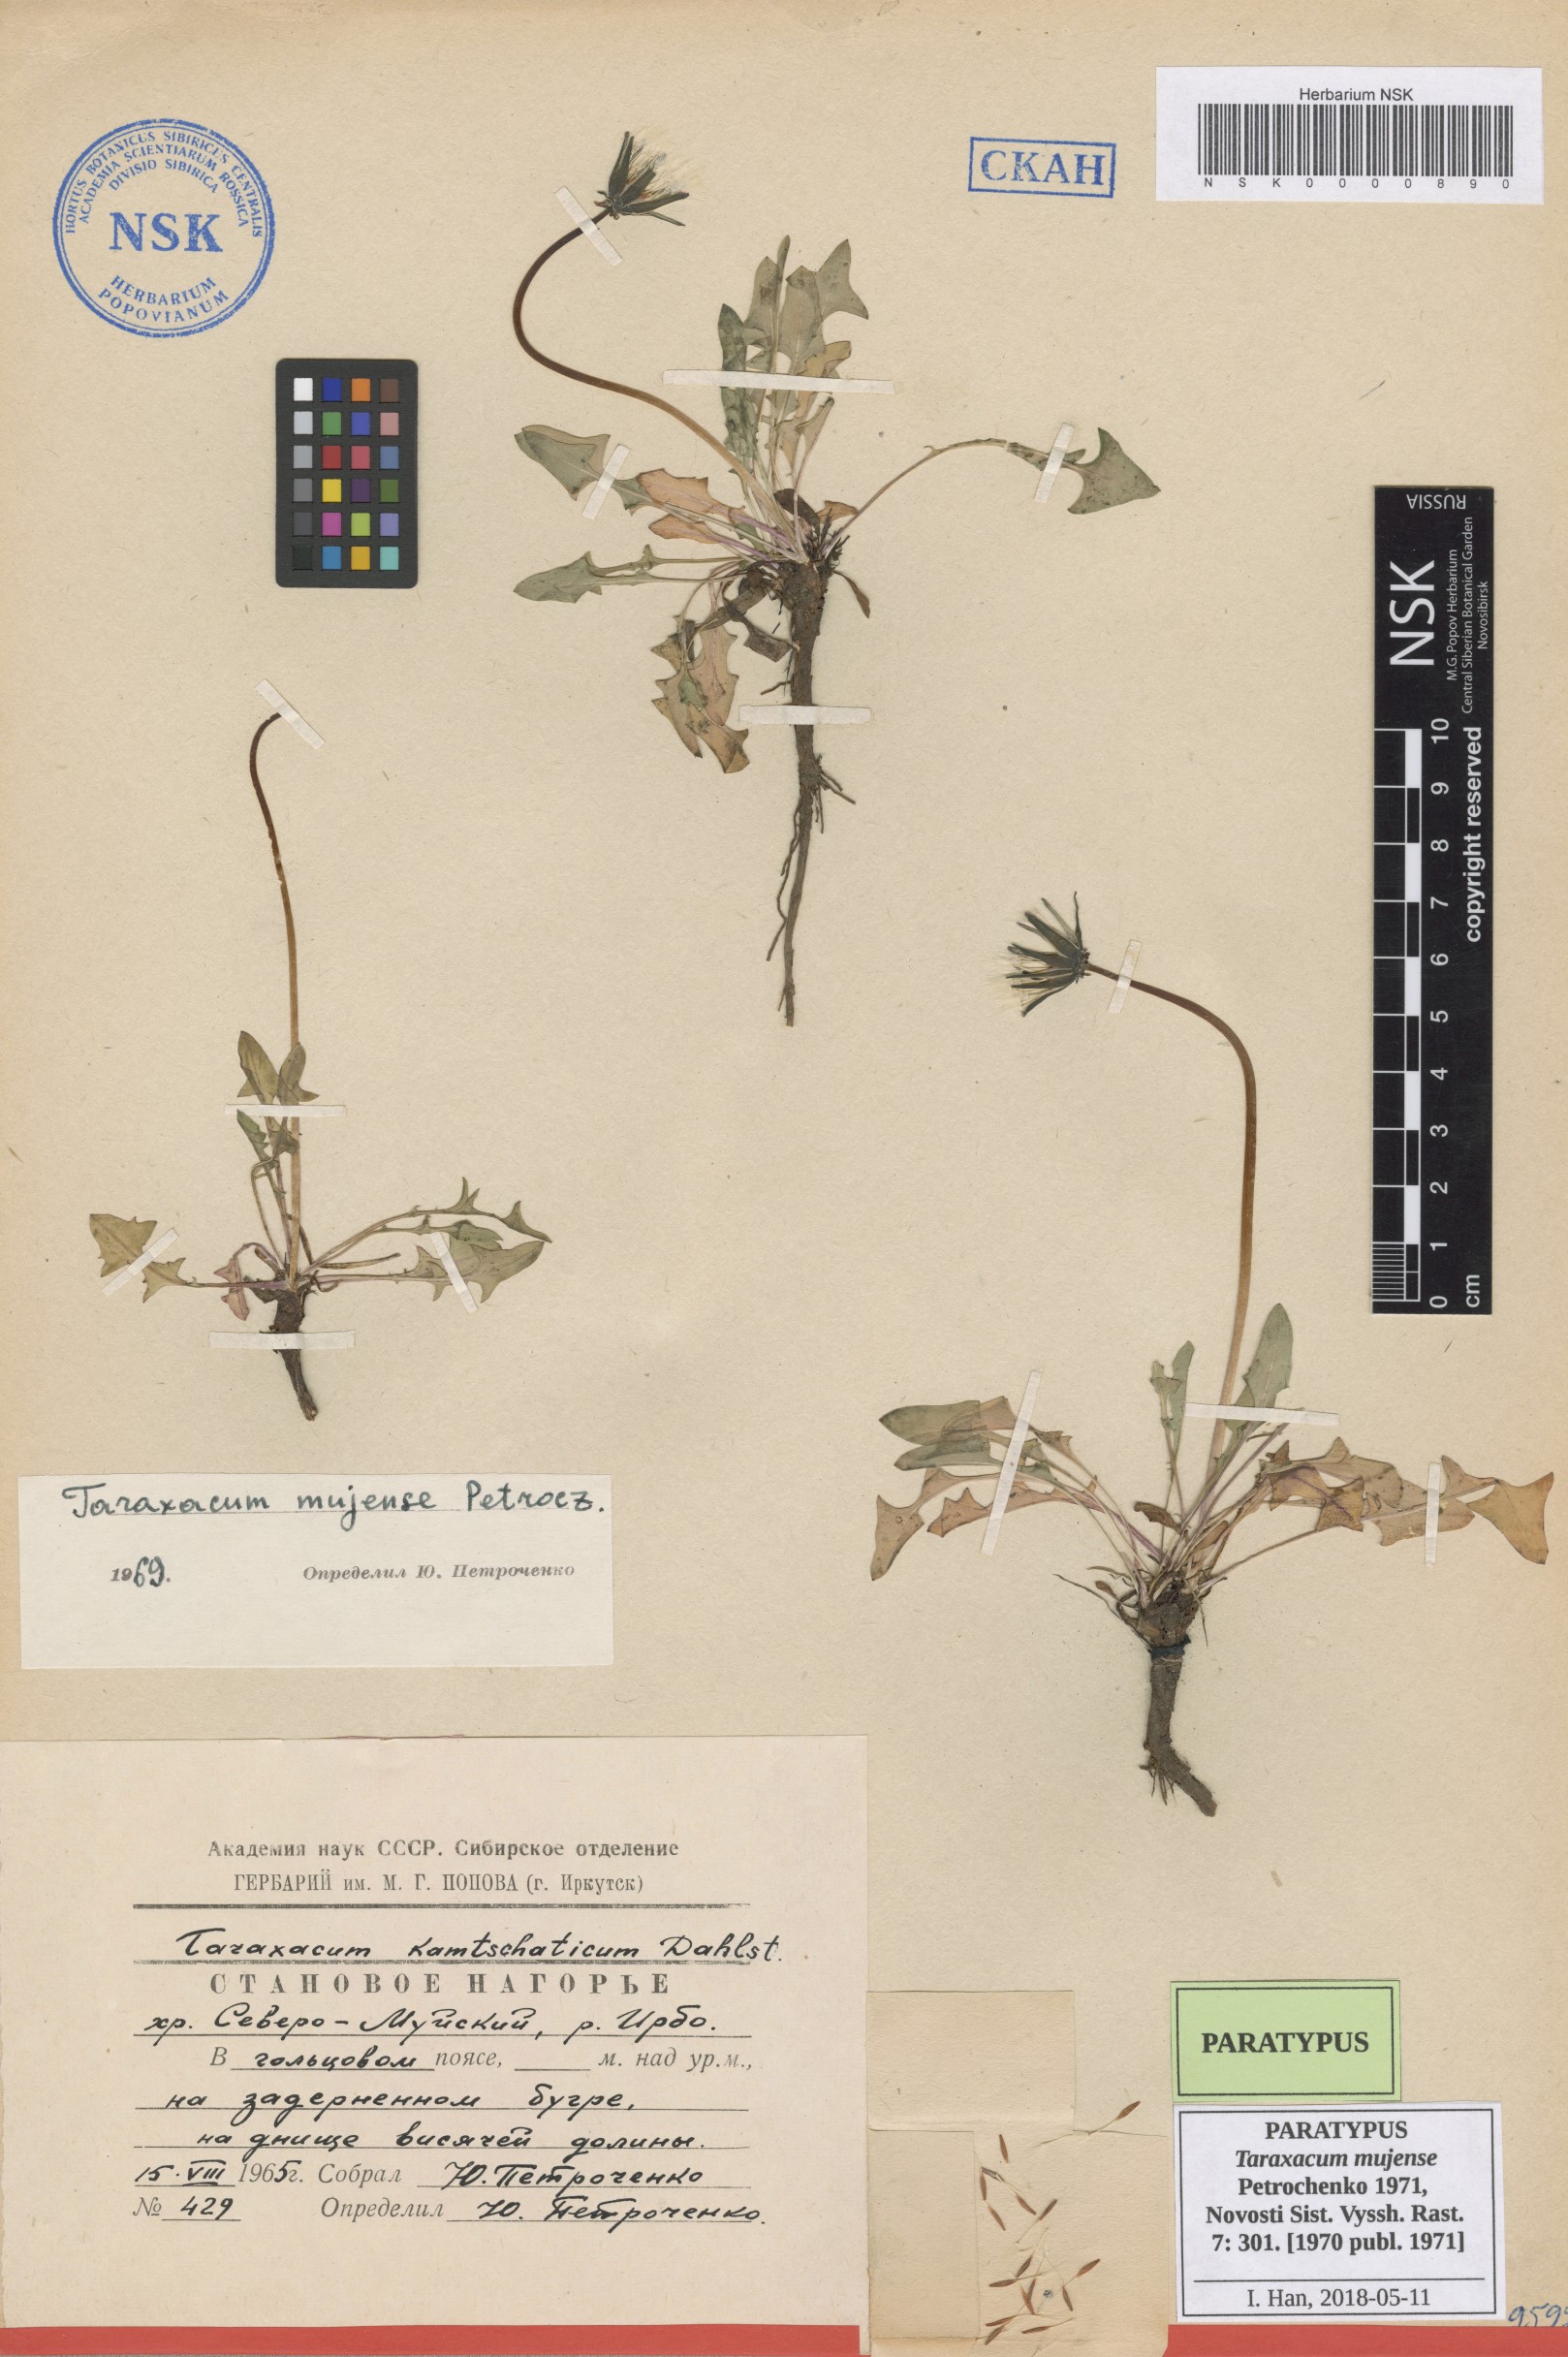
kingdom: Plantae
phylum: Tracheophyta
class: Magnoliopsida
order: Asterales
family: Asteraceae
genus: Taraxacum
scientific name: Taraxacum mujense
